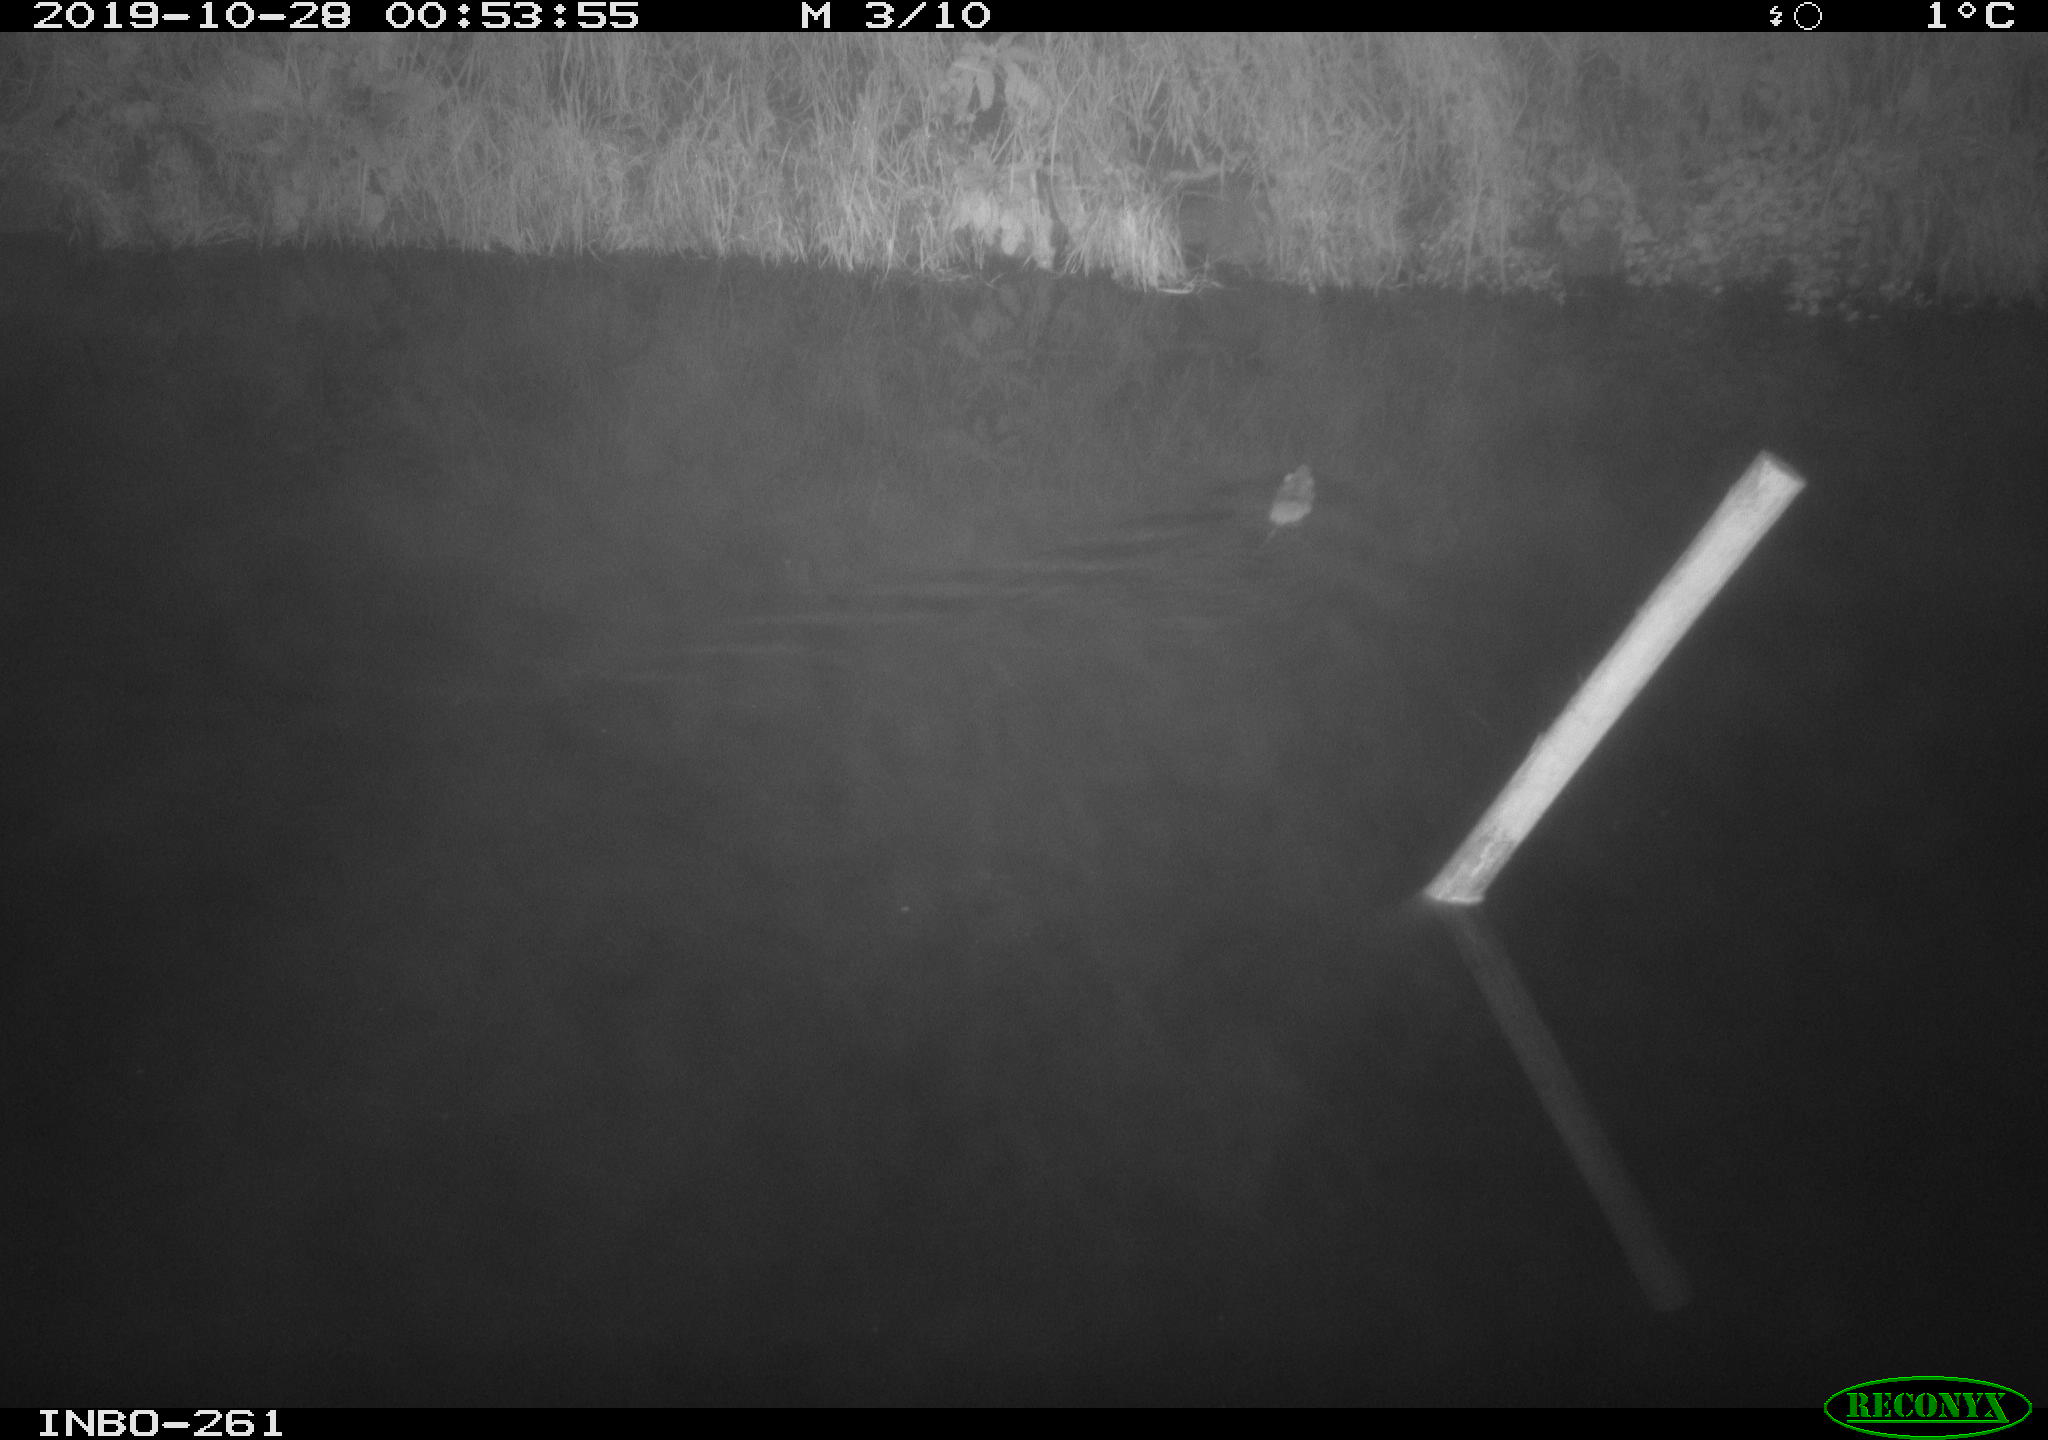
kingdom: Animalia
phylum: Chordata
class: Mammalia
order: Rodentia
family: Muridae
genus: Rattus
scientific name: Rattus norvegicus
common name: Brown rat
